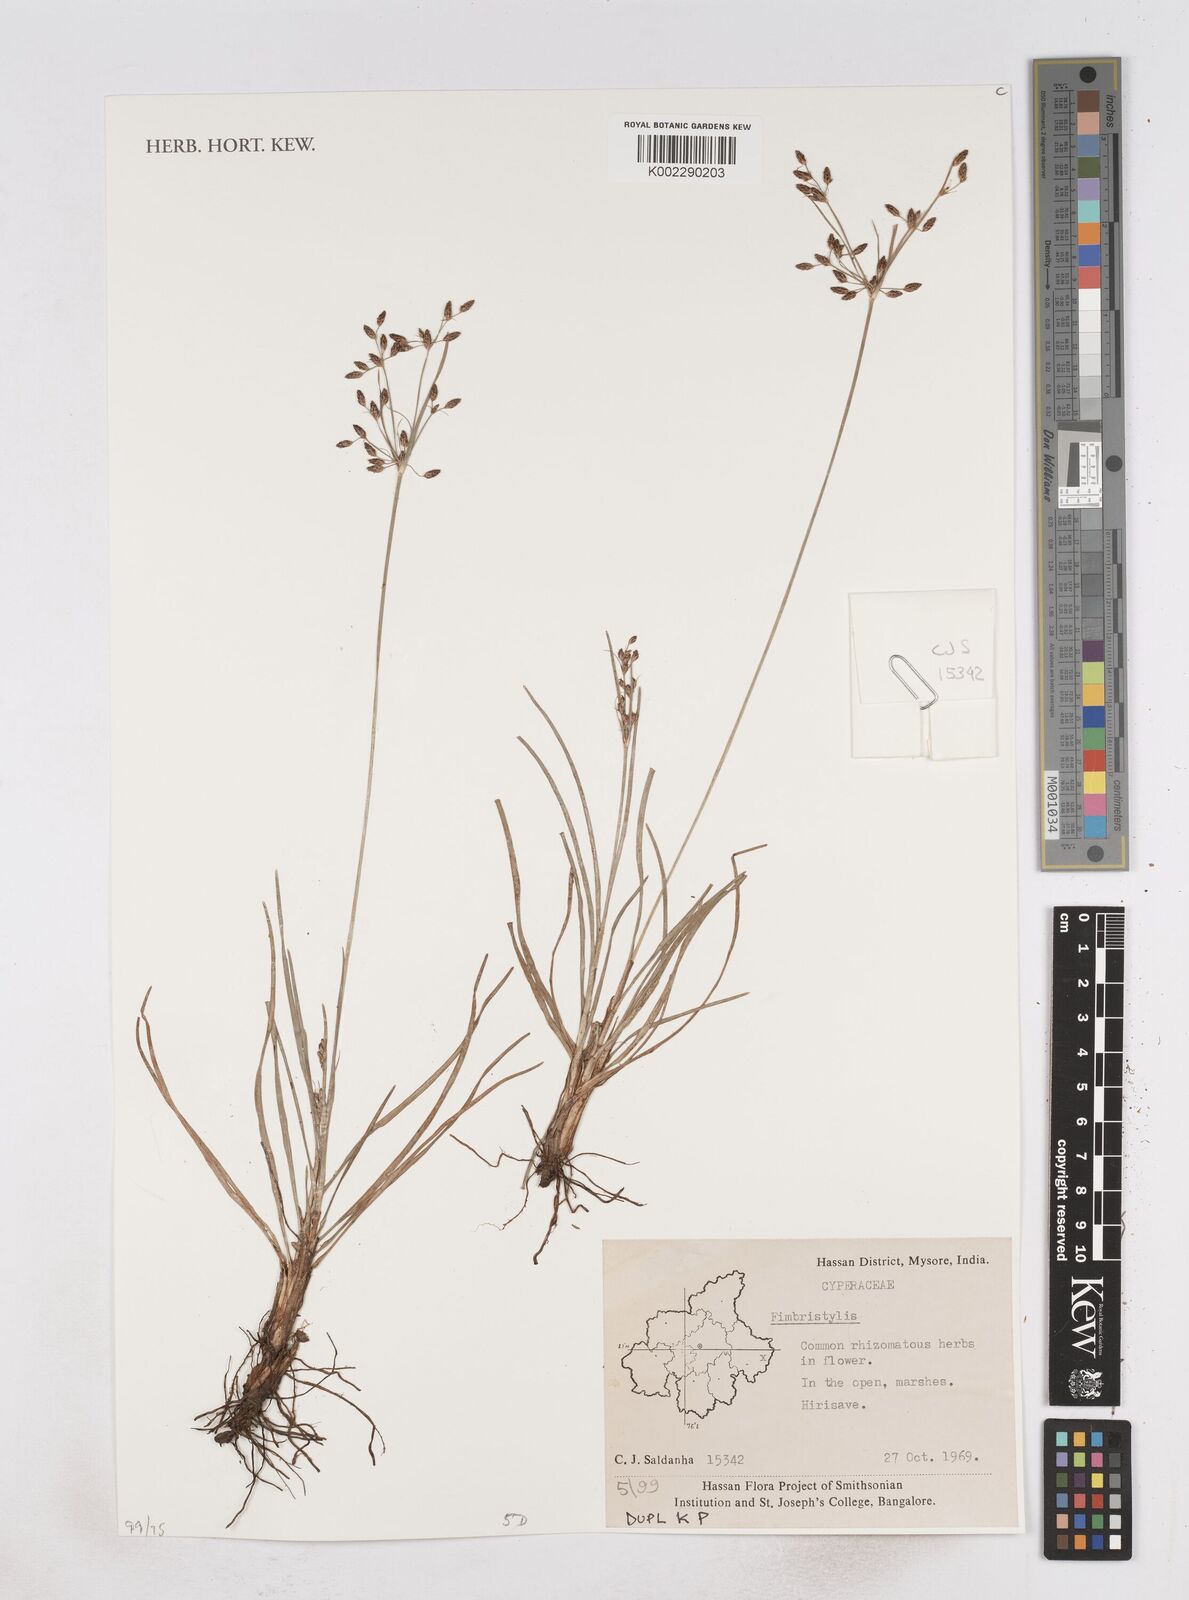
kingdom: Plantae
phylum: Tracheophyta
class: Liliopsida
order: Poales
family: Cyperaceae
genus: Fimbristylis
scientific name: Fimbristylis
